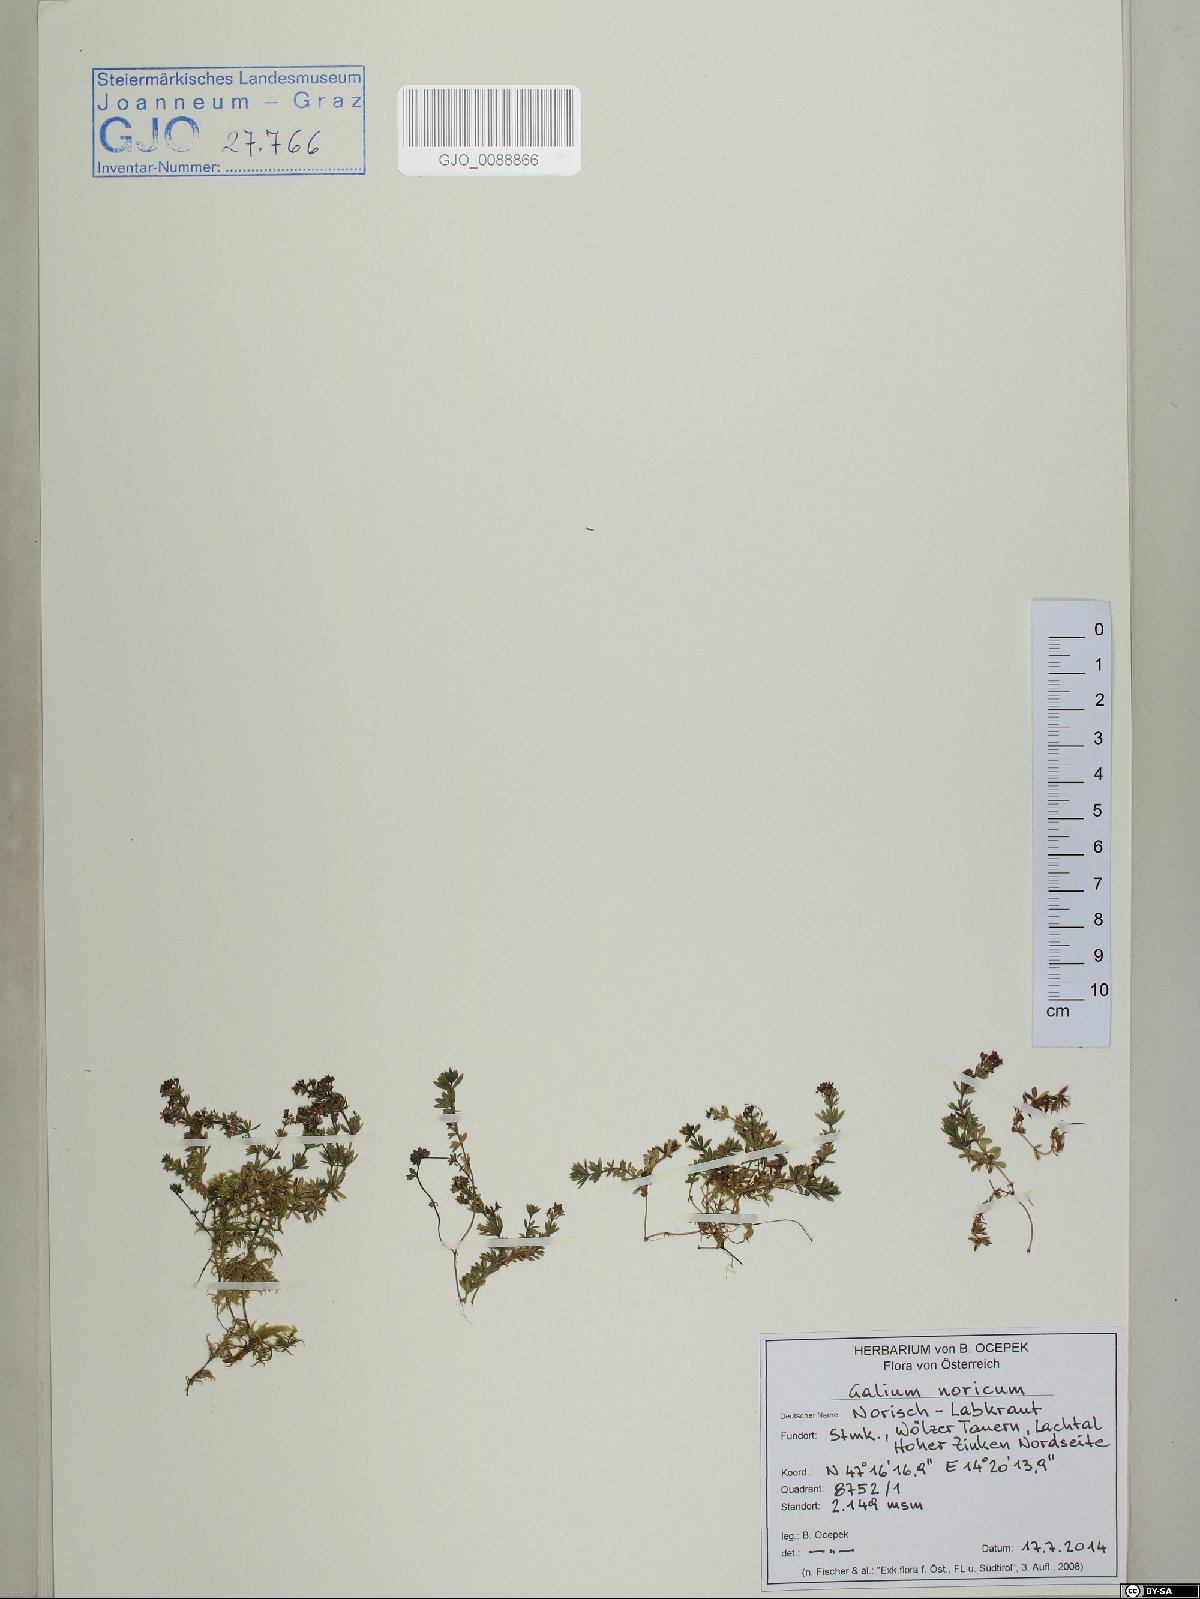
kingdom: Plantae
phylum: Tracheophyta
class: Magnoliopsida
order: Gentianales
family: Rubiaceae
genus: Galium
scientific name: Galium noricum
